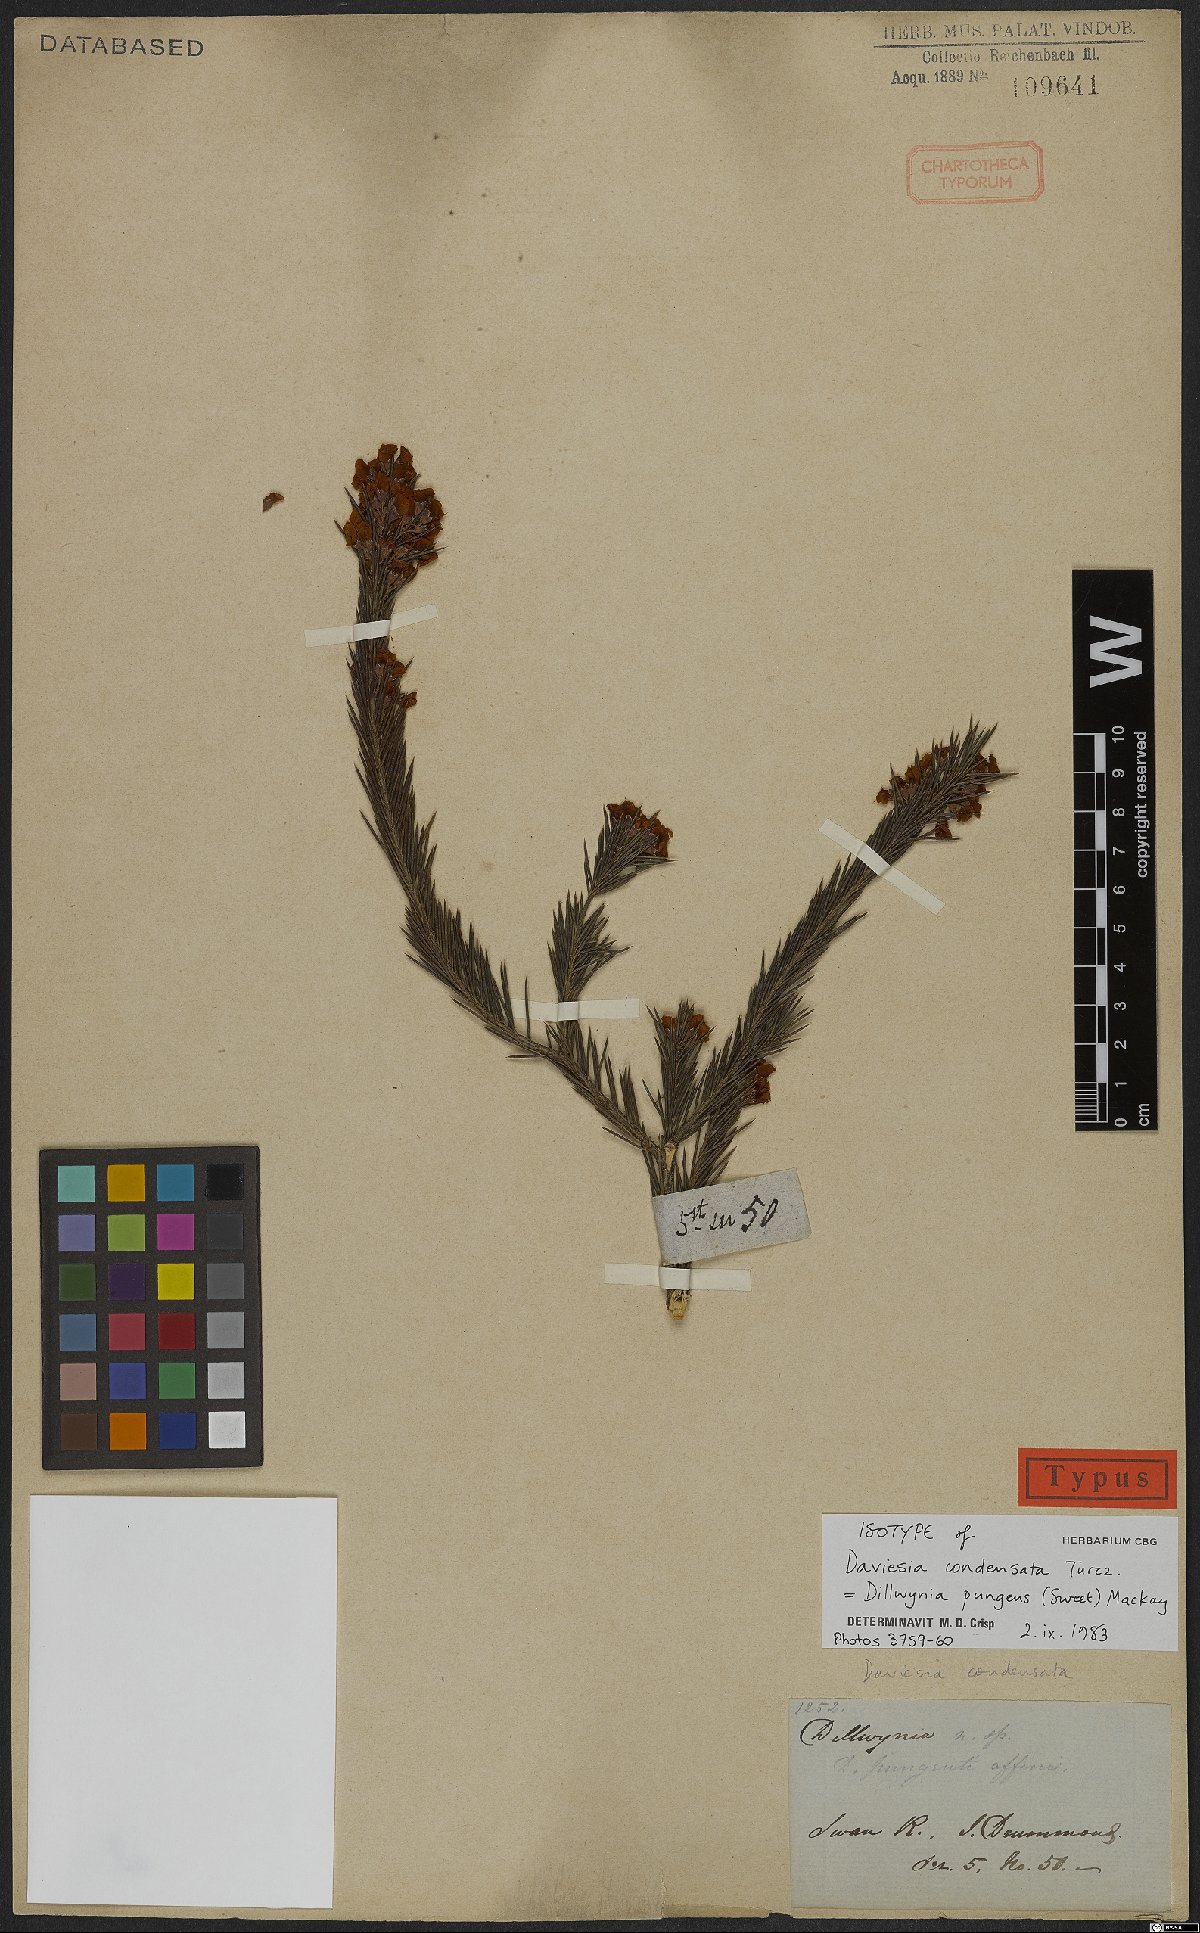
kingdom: Plantae
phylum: Tracheophyta
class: Magnoliopsida
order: Fabales
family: Fabaceae
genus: Dillwynia
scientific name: Dillwynia pungens
